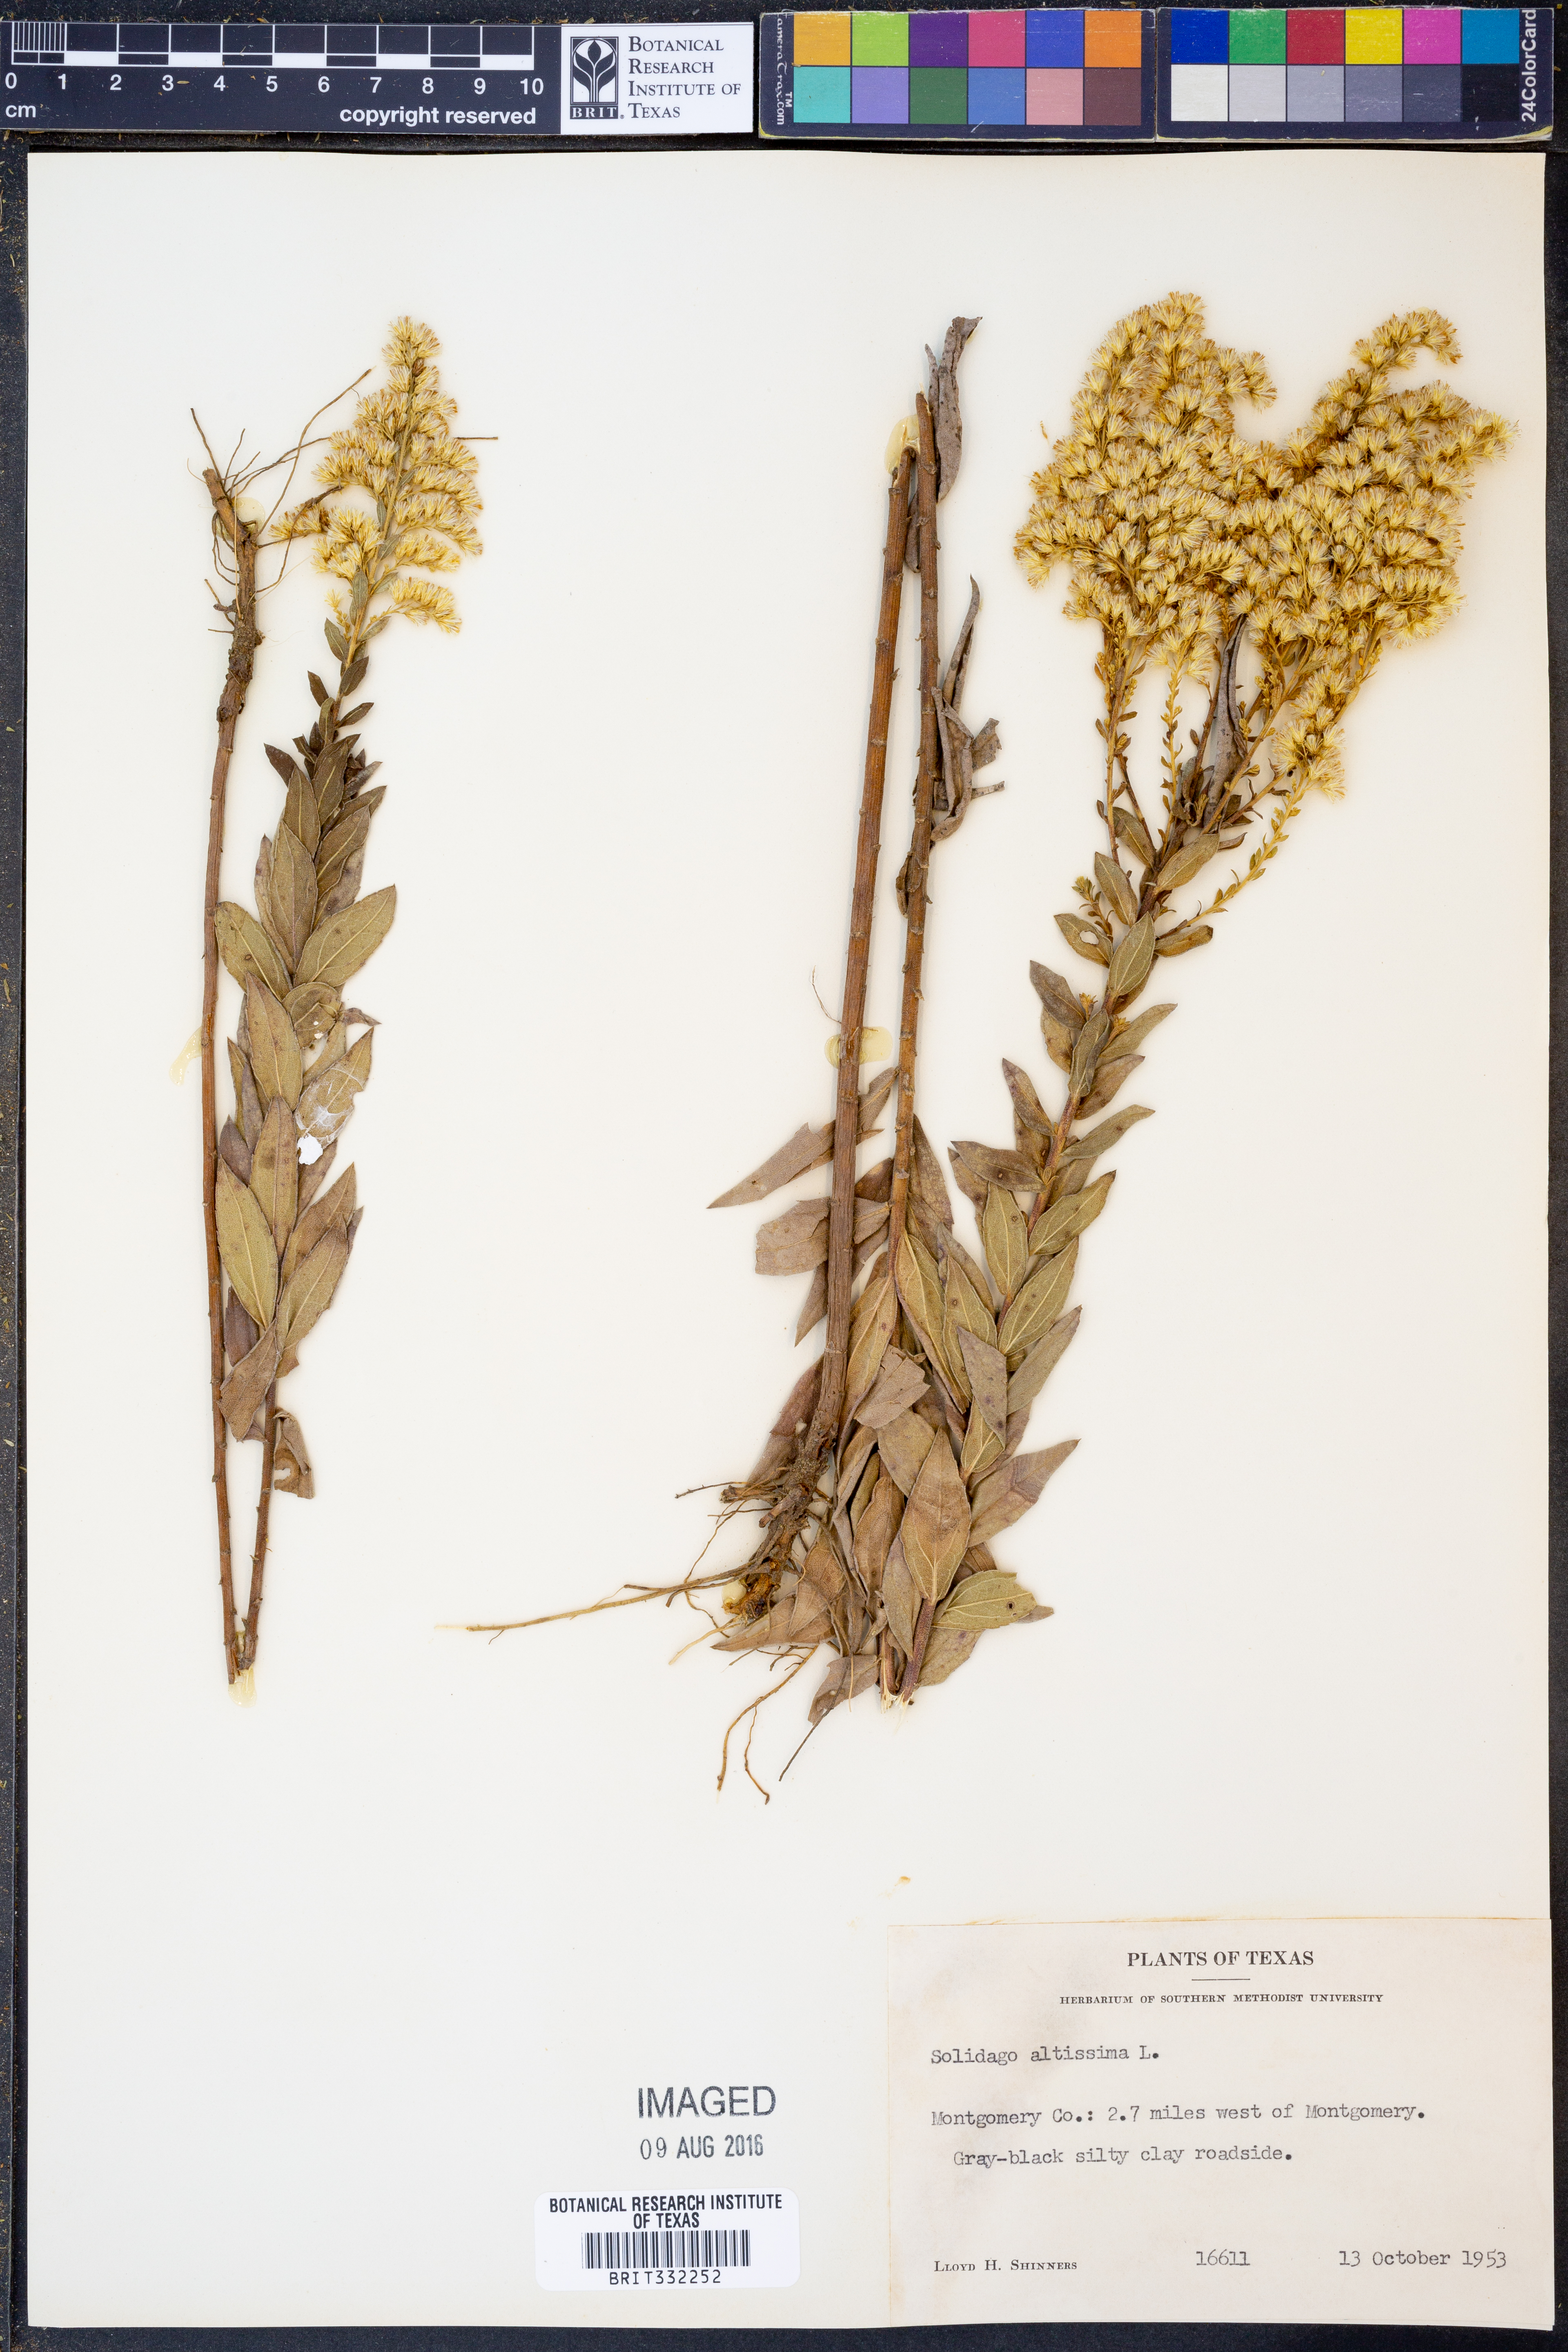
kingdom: Plantae
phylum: Tracheophyta
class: Magnoliopsida
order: Asterales
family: Asteraceae
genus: Solidago
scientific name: Solidago altissima
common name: Late goldenrod
